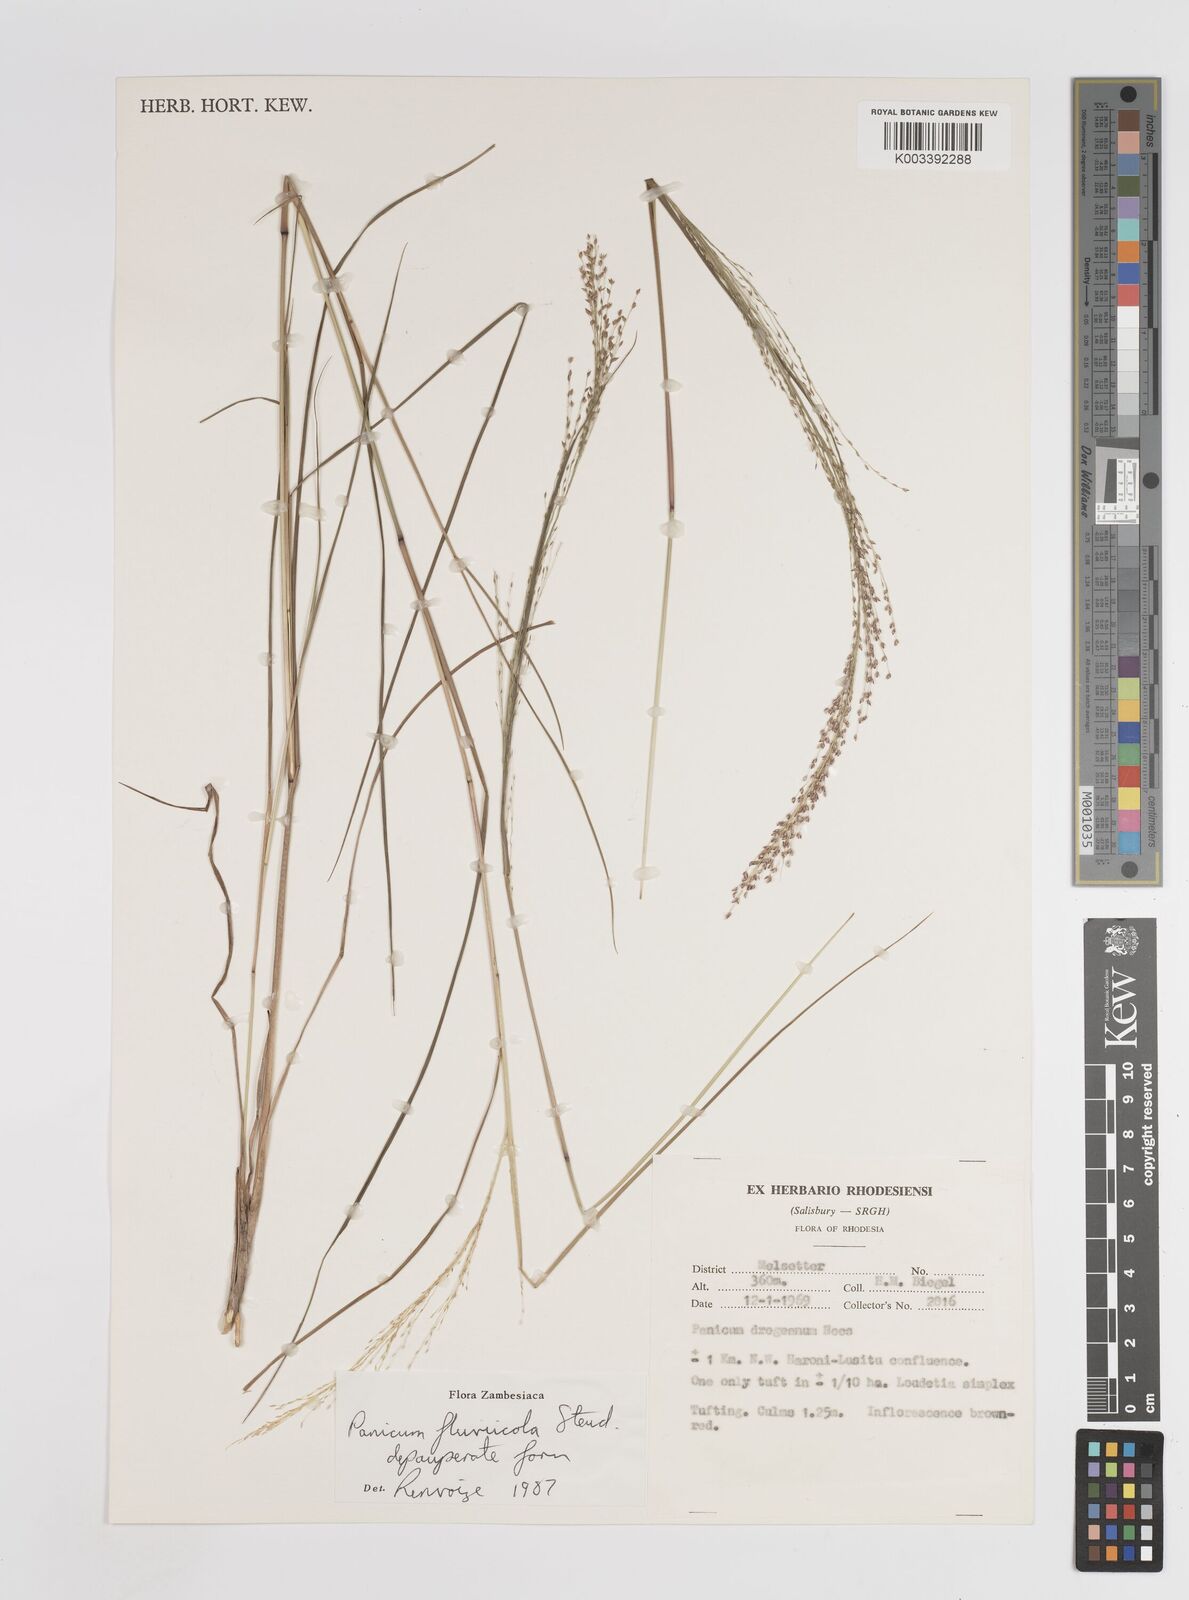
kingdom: Plantae
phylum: Tracheophyta
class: Liliopsida
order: Poales
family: Poaceae
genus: Panicum
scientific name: Panicum fluviicola
